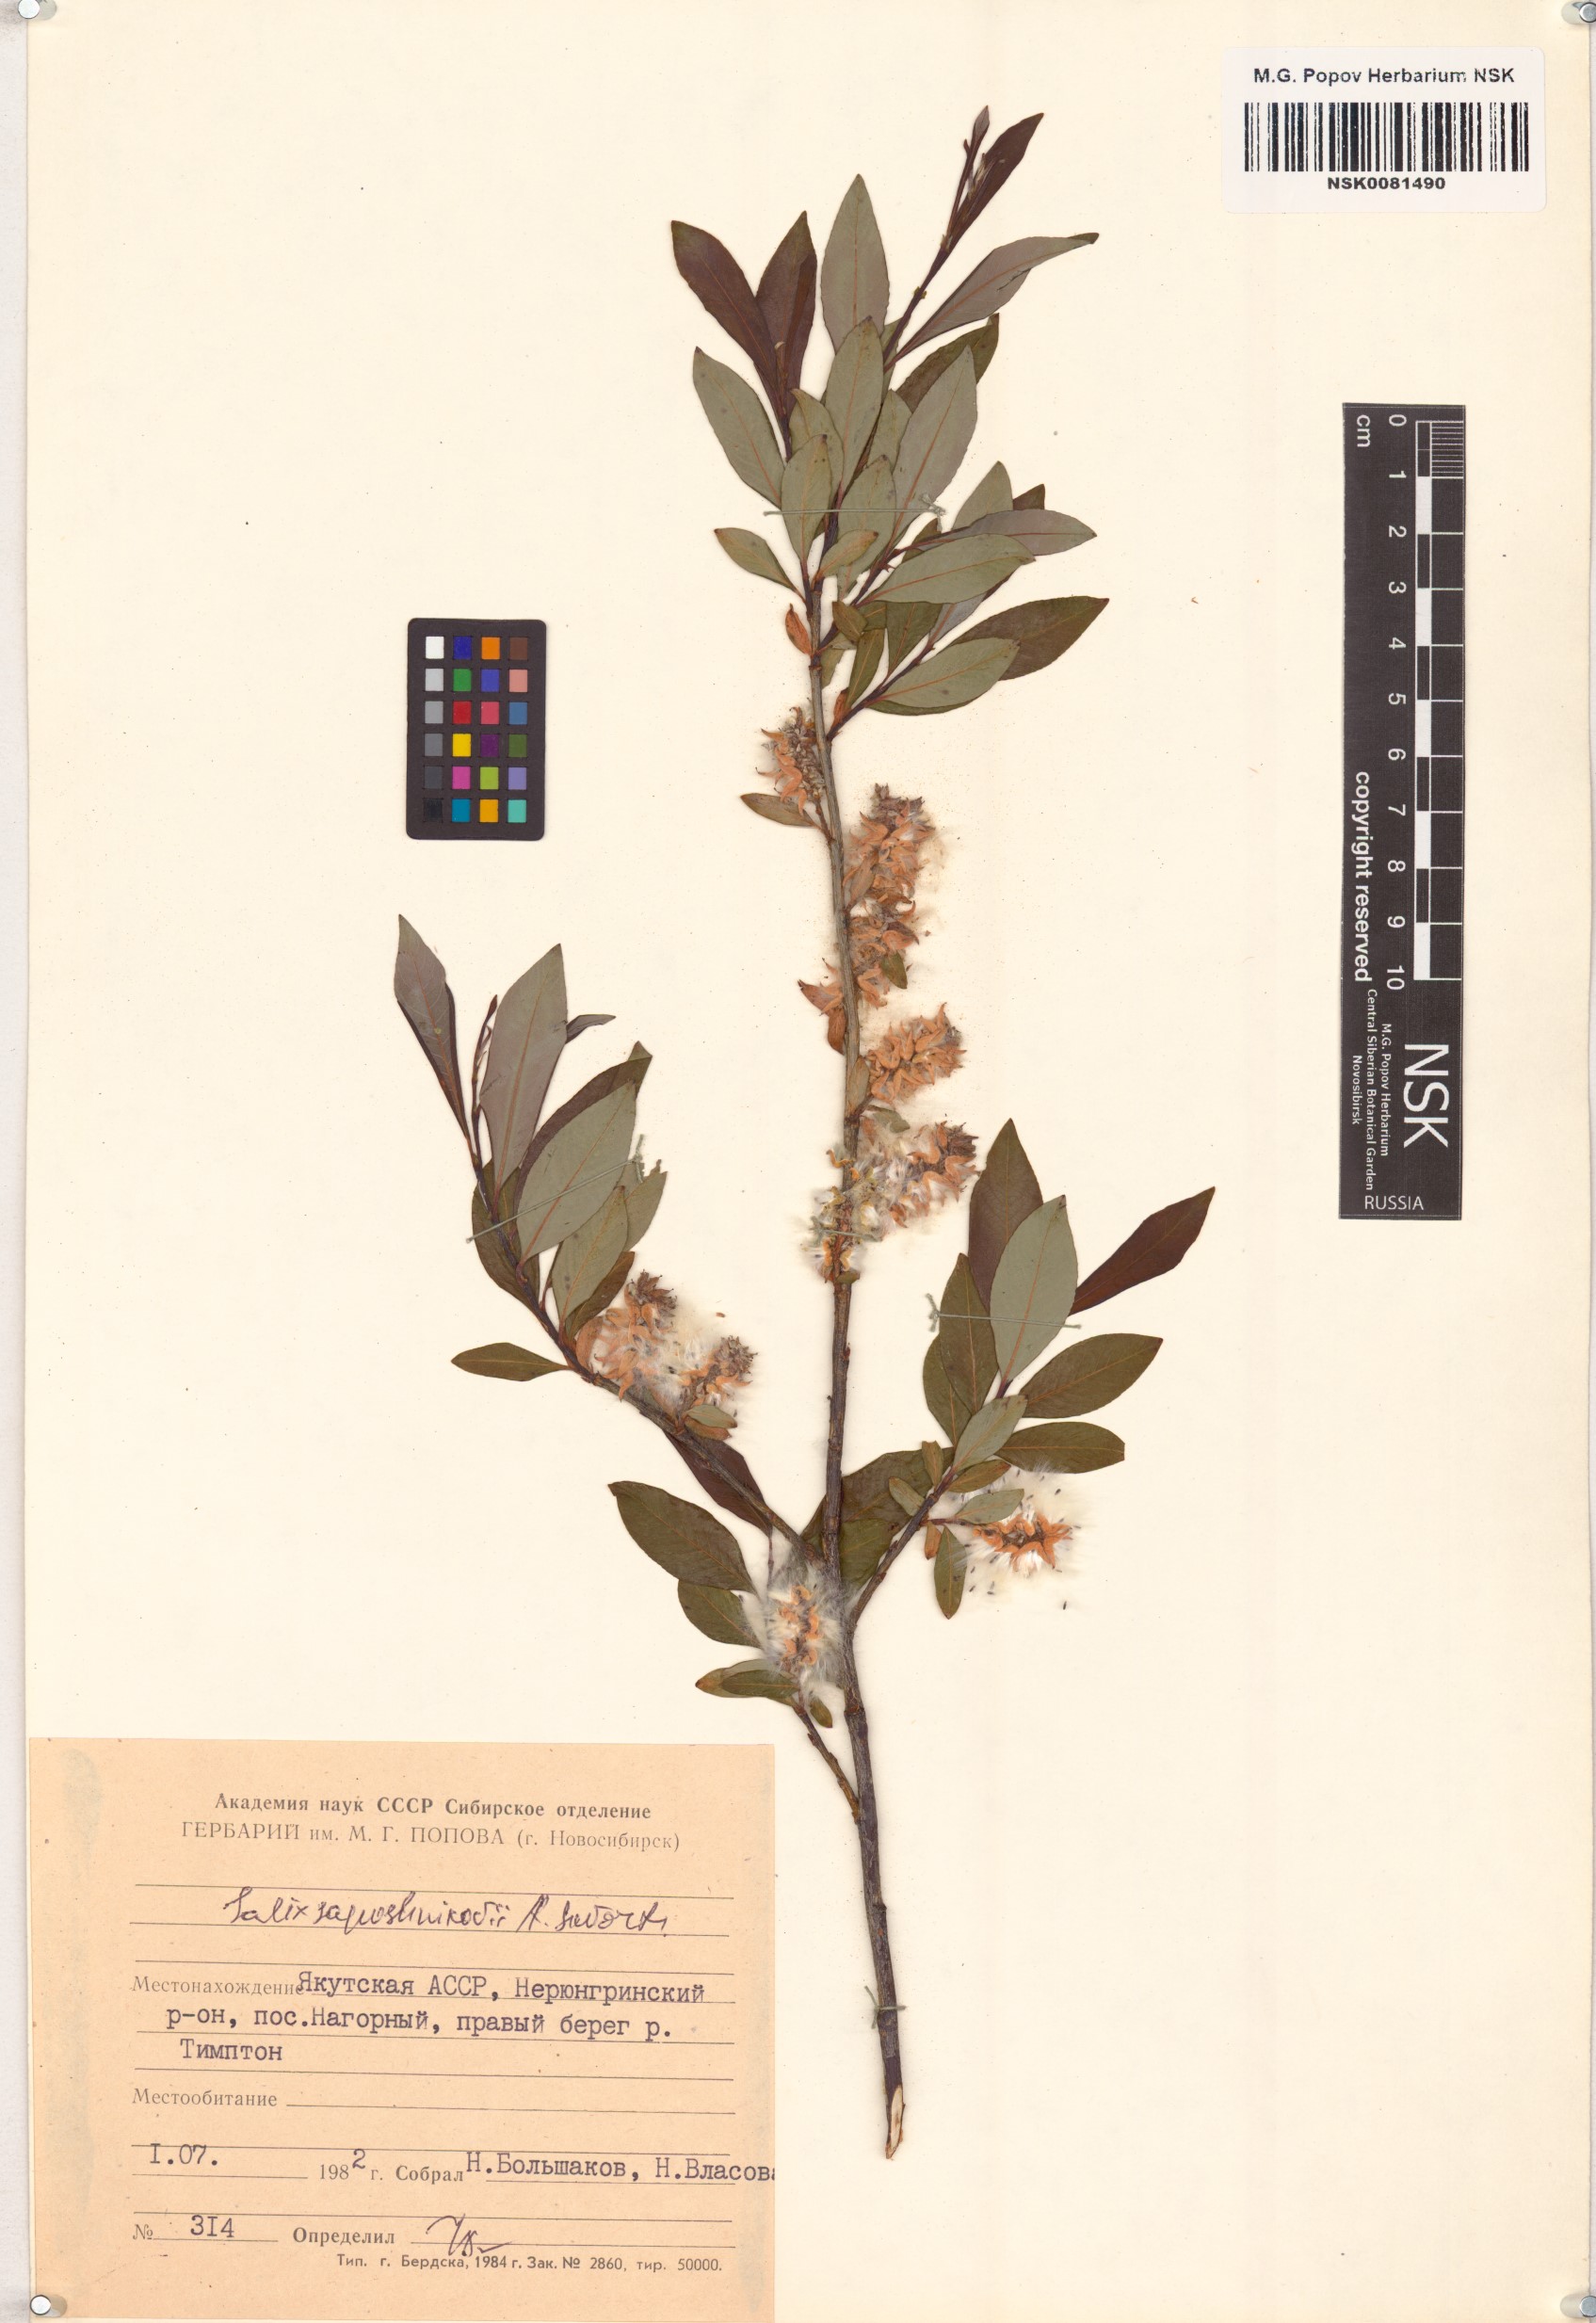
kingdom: Plantae
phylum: Tracheophyta
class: Magnoliopsida
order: Malpighiales
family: Salicaceae
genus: Salix
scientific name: Salix saposhnikovii
